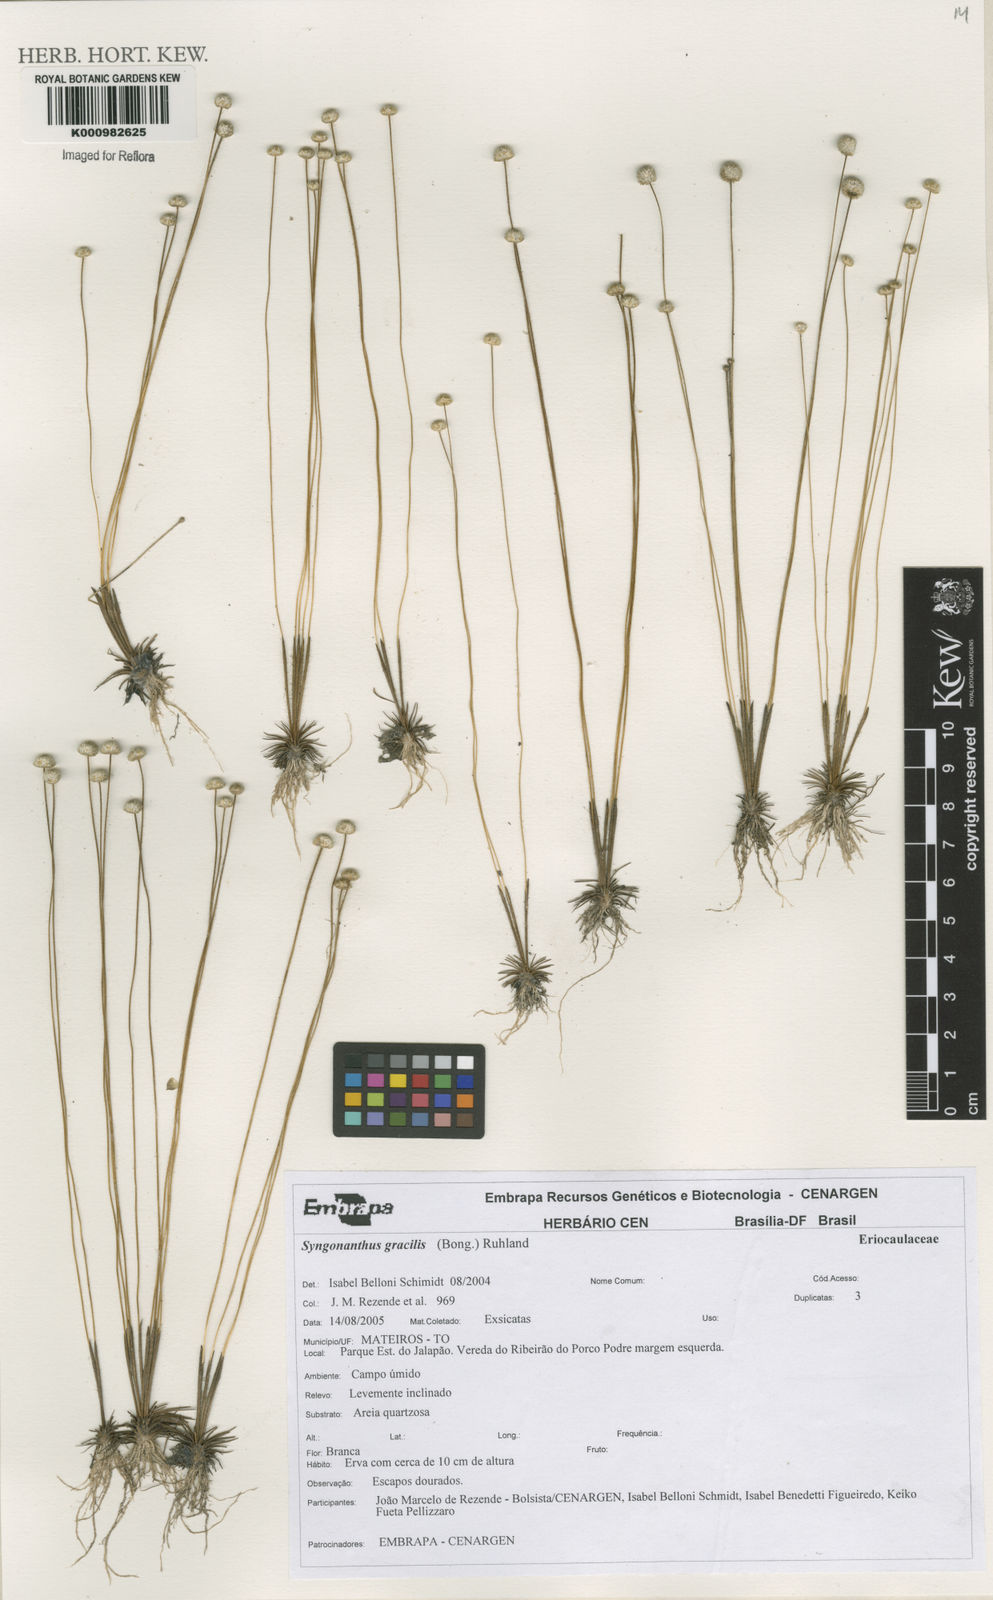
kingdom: Plantae
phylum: Tracheophyta
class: Liliopsida
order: Poales
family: Eriocaulaceae
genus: Syngonanthus
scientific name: Syngonanthus gracilis
